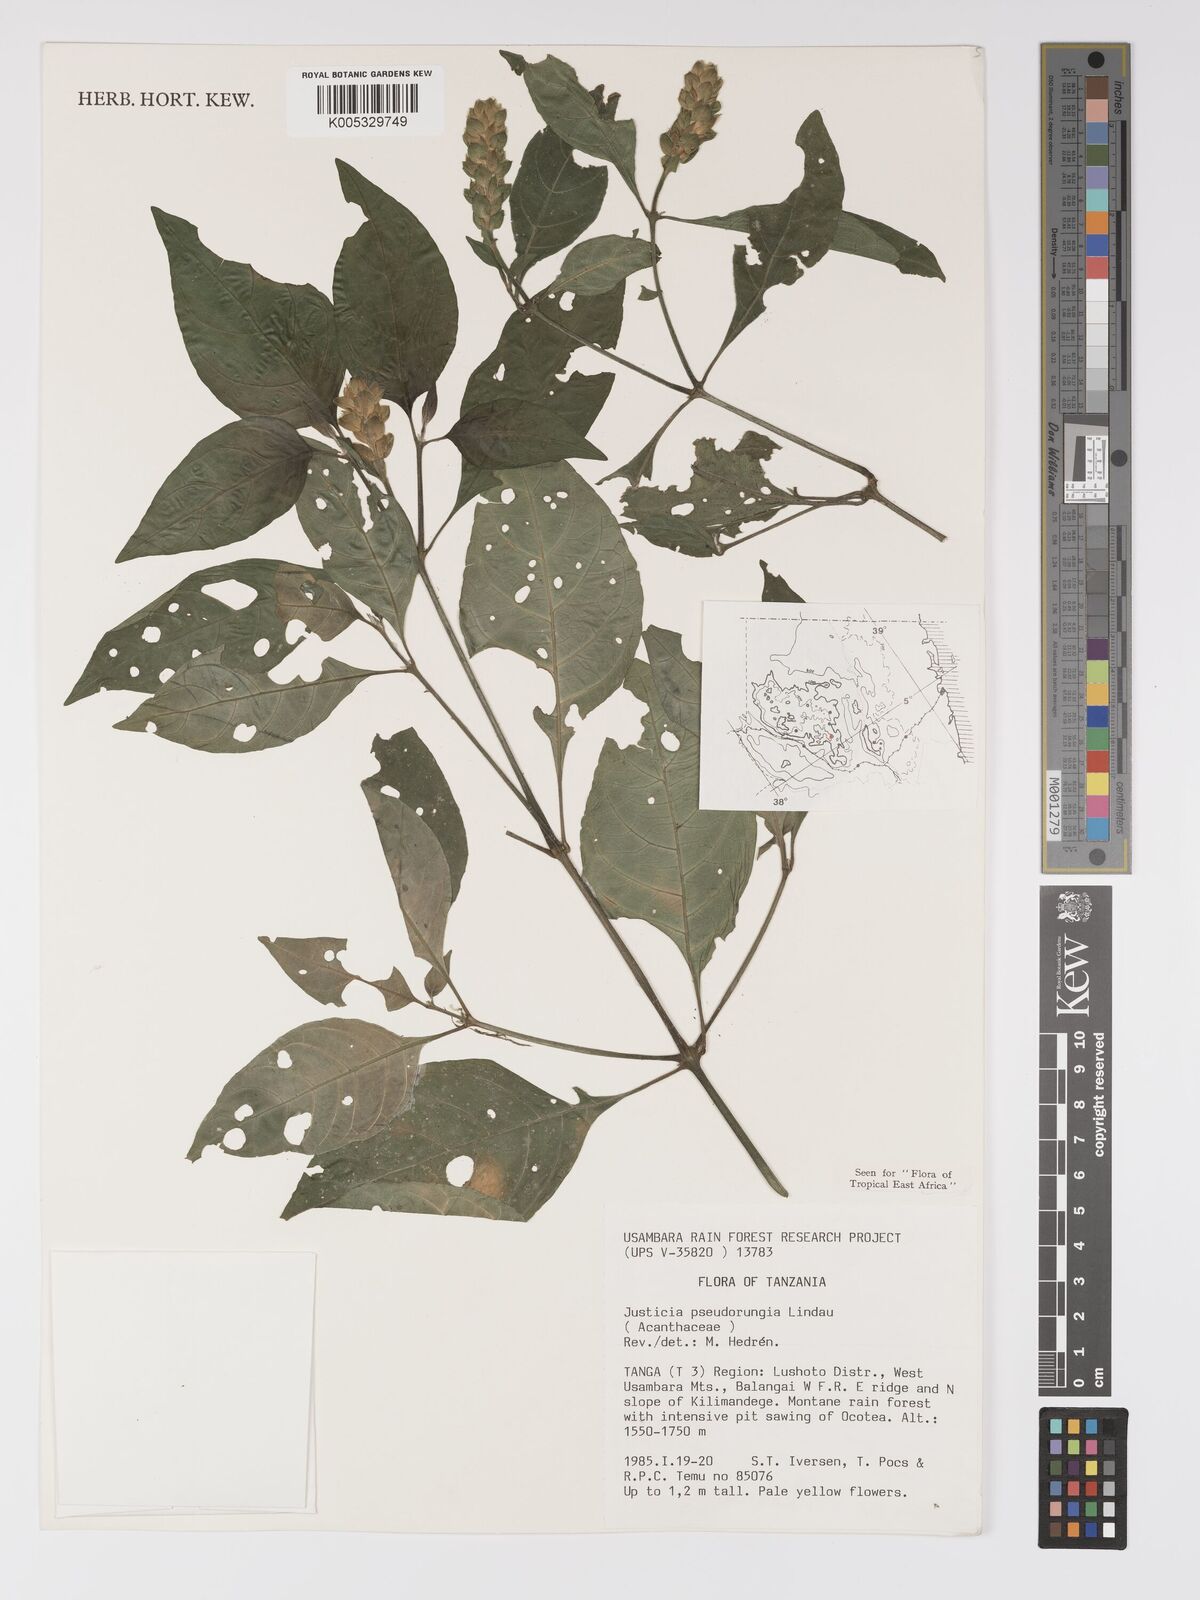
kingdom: Plantae
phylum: Tracheophyta
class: Magnoliopsida
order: Lamiales
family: Acanthaceae
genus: Justicia
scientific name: Justicia pseudorungia
